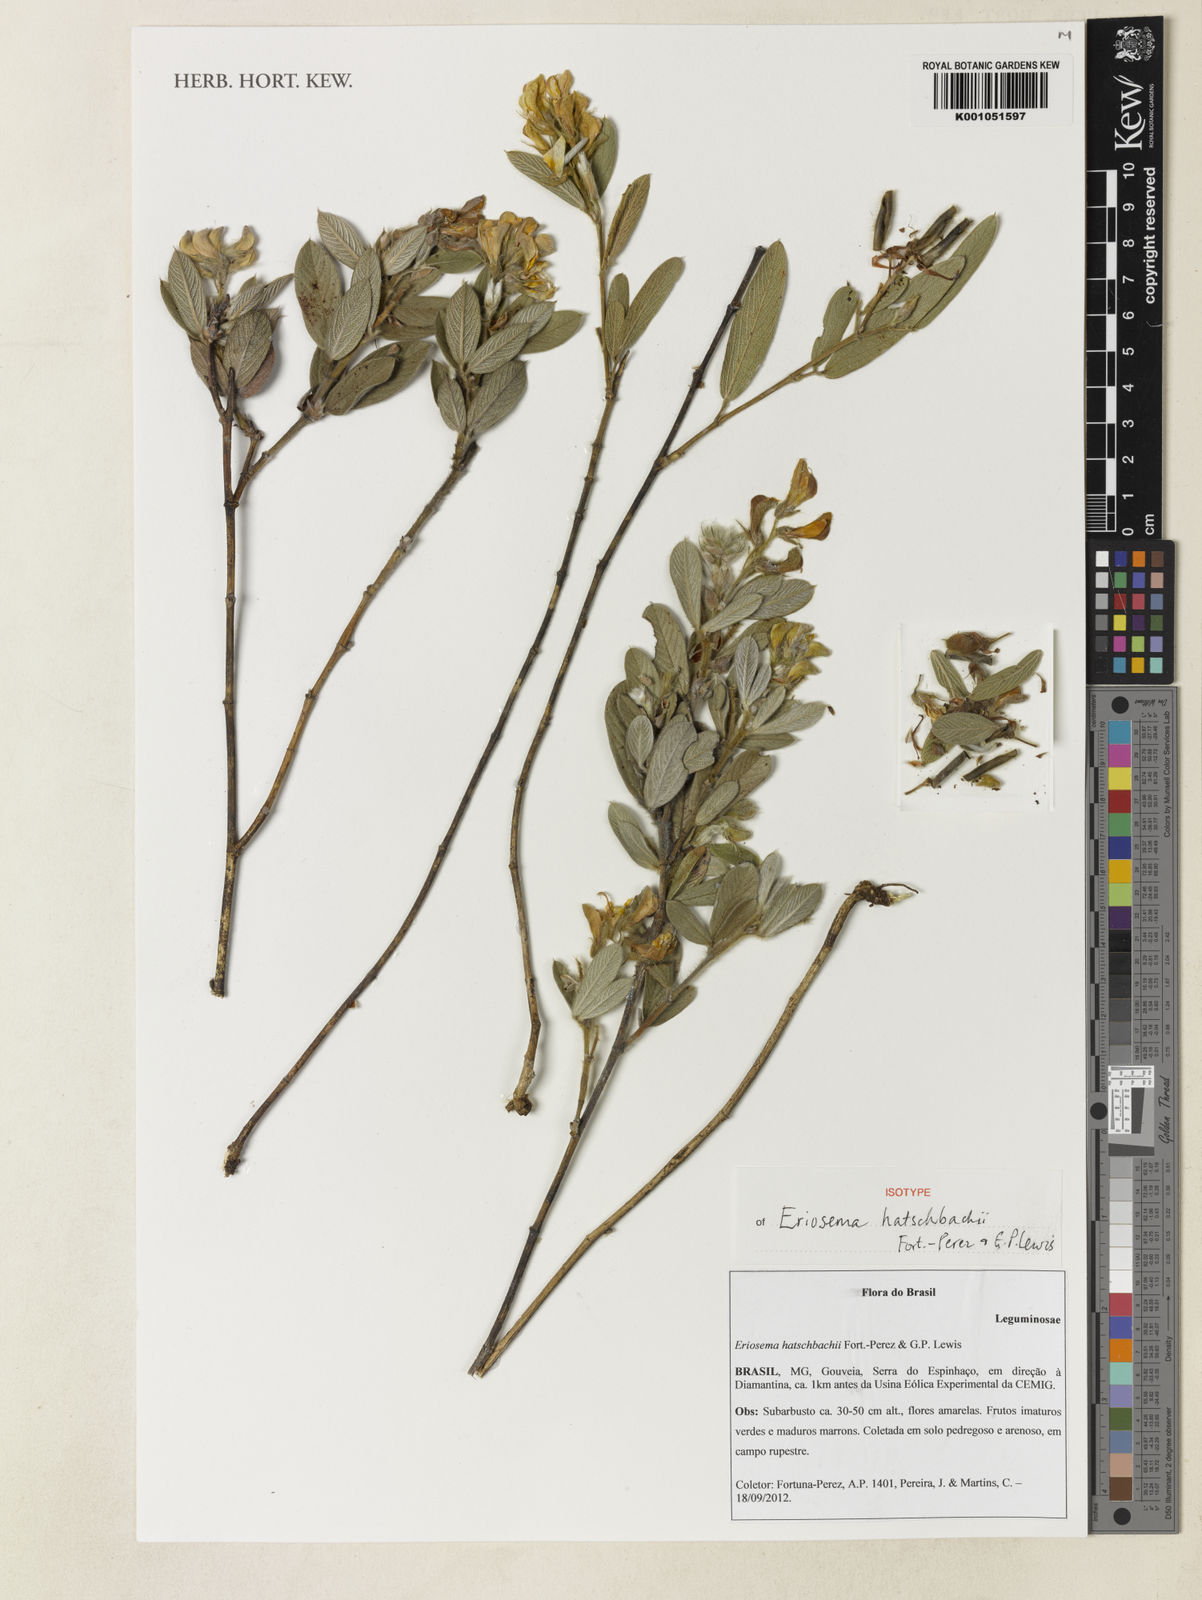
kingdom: Plantae
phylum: Tracheophyta
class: Magnoliopsida
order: Fabales
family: Fabaceae
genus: Eriosema
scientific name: Eriosema hatschbachii
